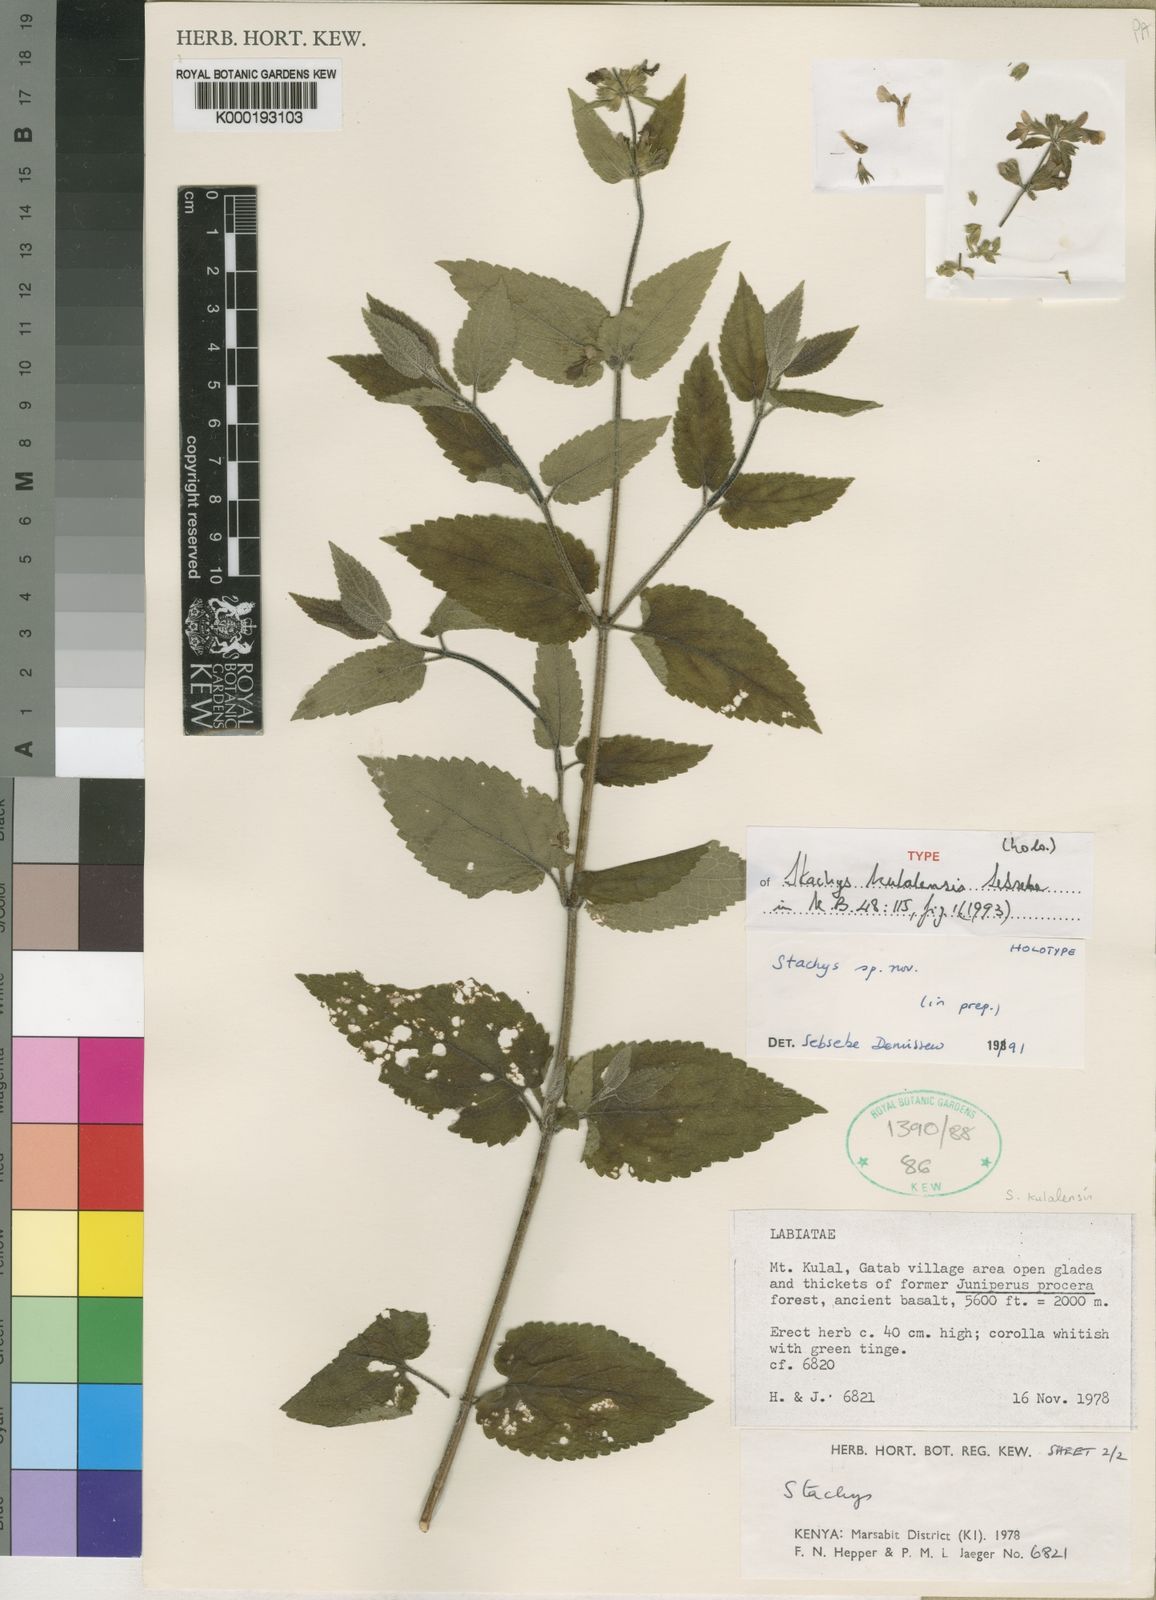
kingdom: Plantae
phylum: Tracheophyta
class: Magnoliopsida
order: Lamiales
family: Lamiaceae
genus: Stachys
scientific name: Stachys kulalensis
